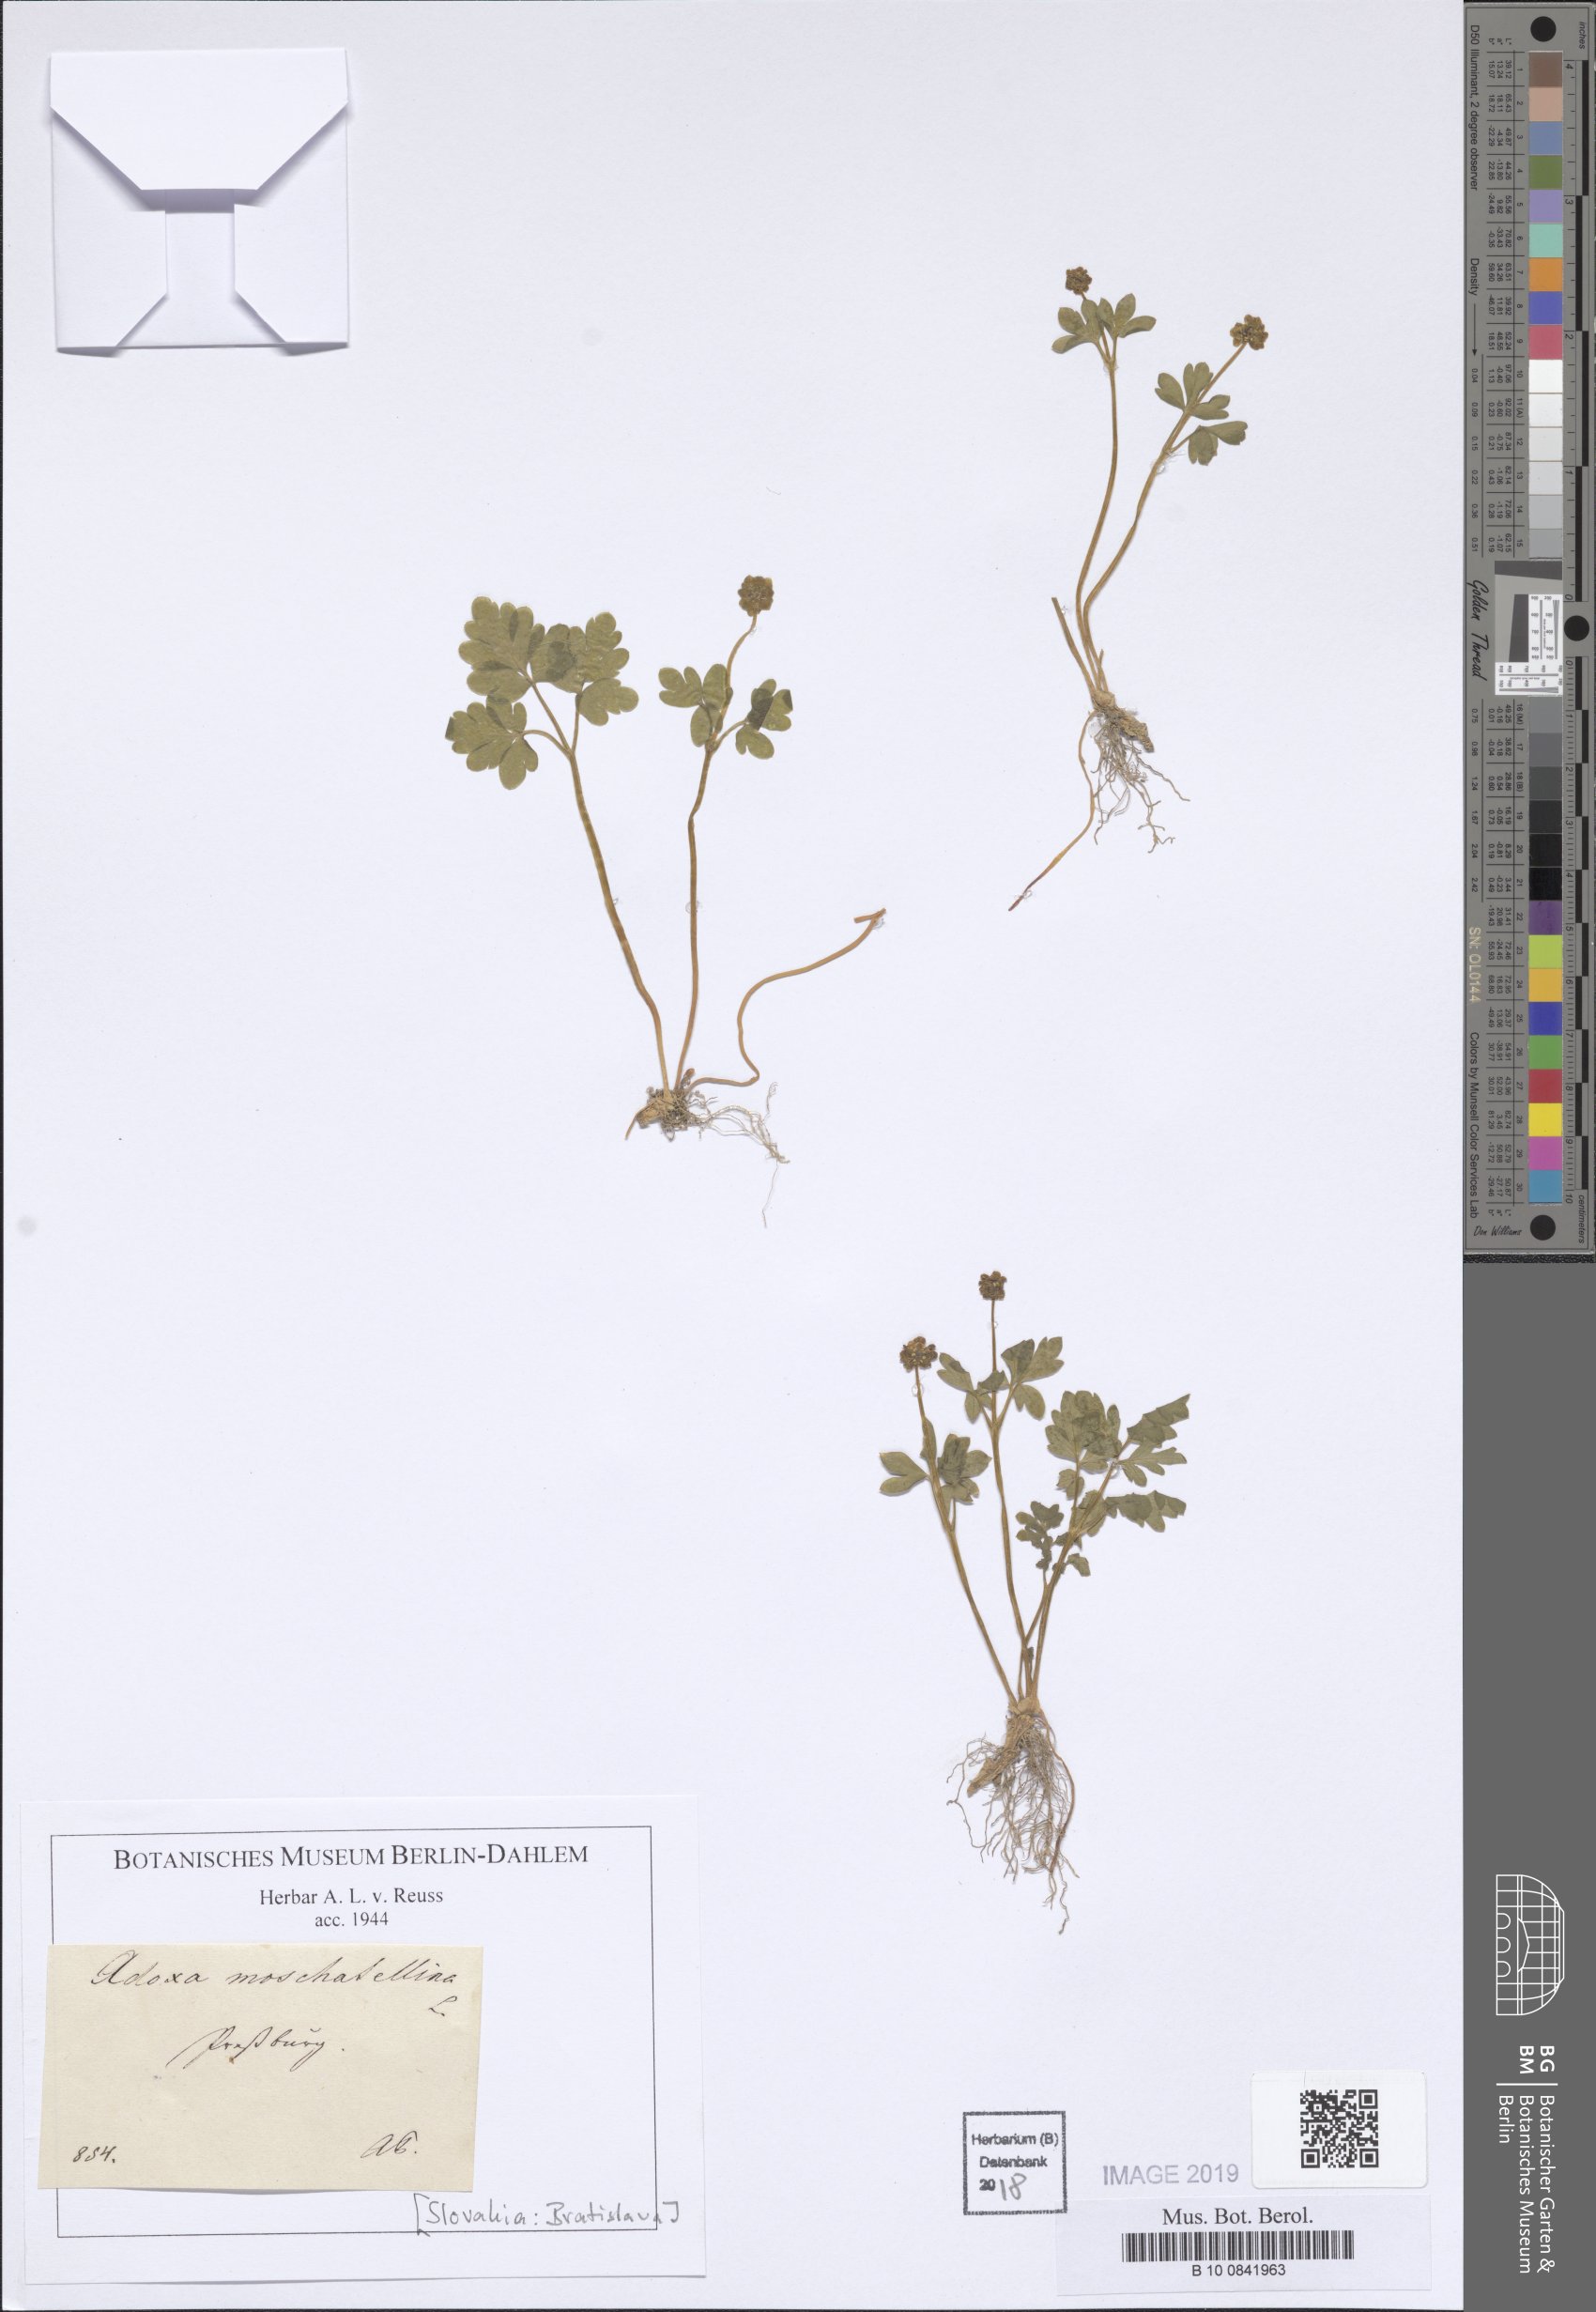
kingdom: Plantae
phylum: Tracheophyta
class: Magnoliopsida
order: Dipsacales
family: Viburnaceae
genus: Adoxa
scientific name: Adoxa moschatellina
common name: Moschatel
